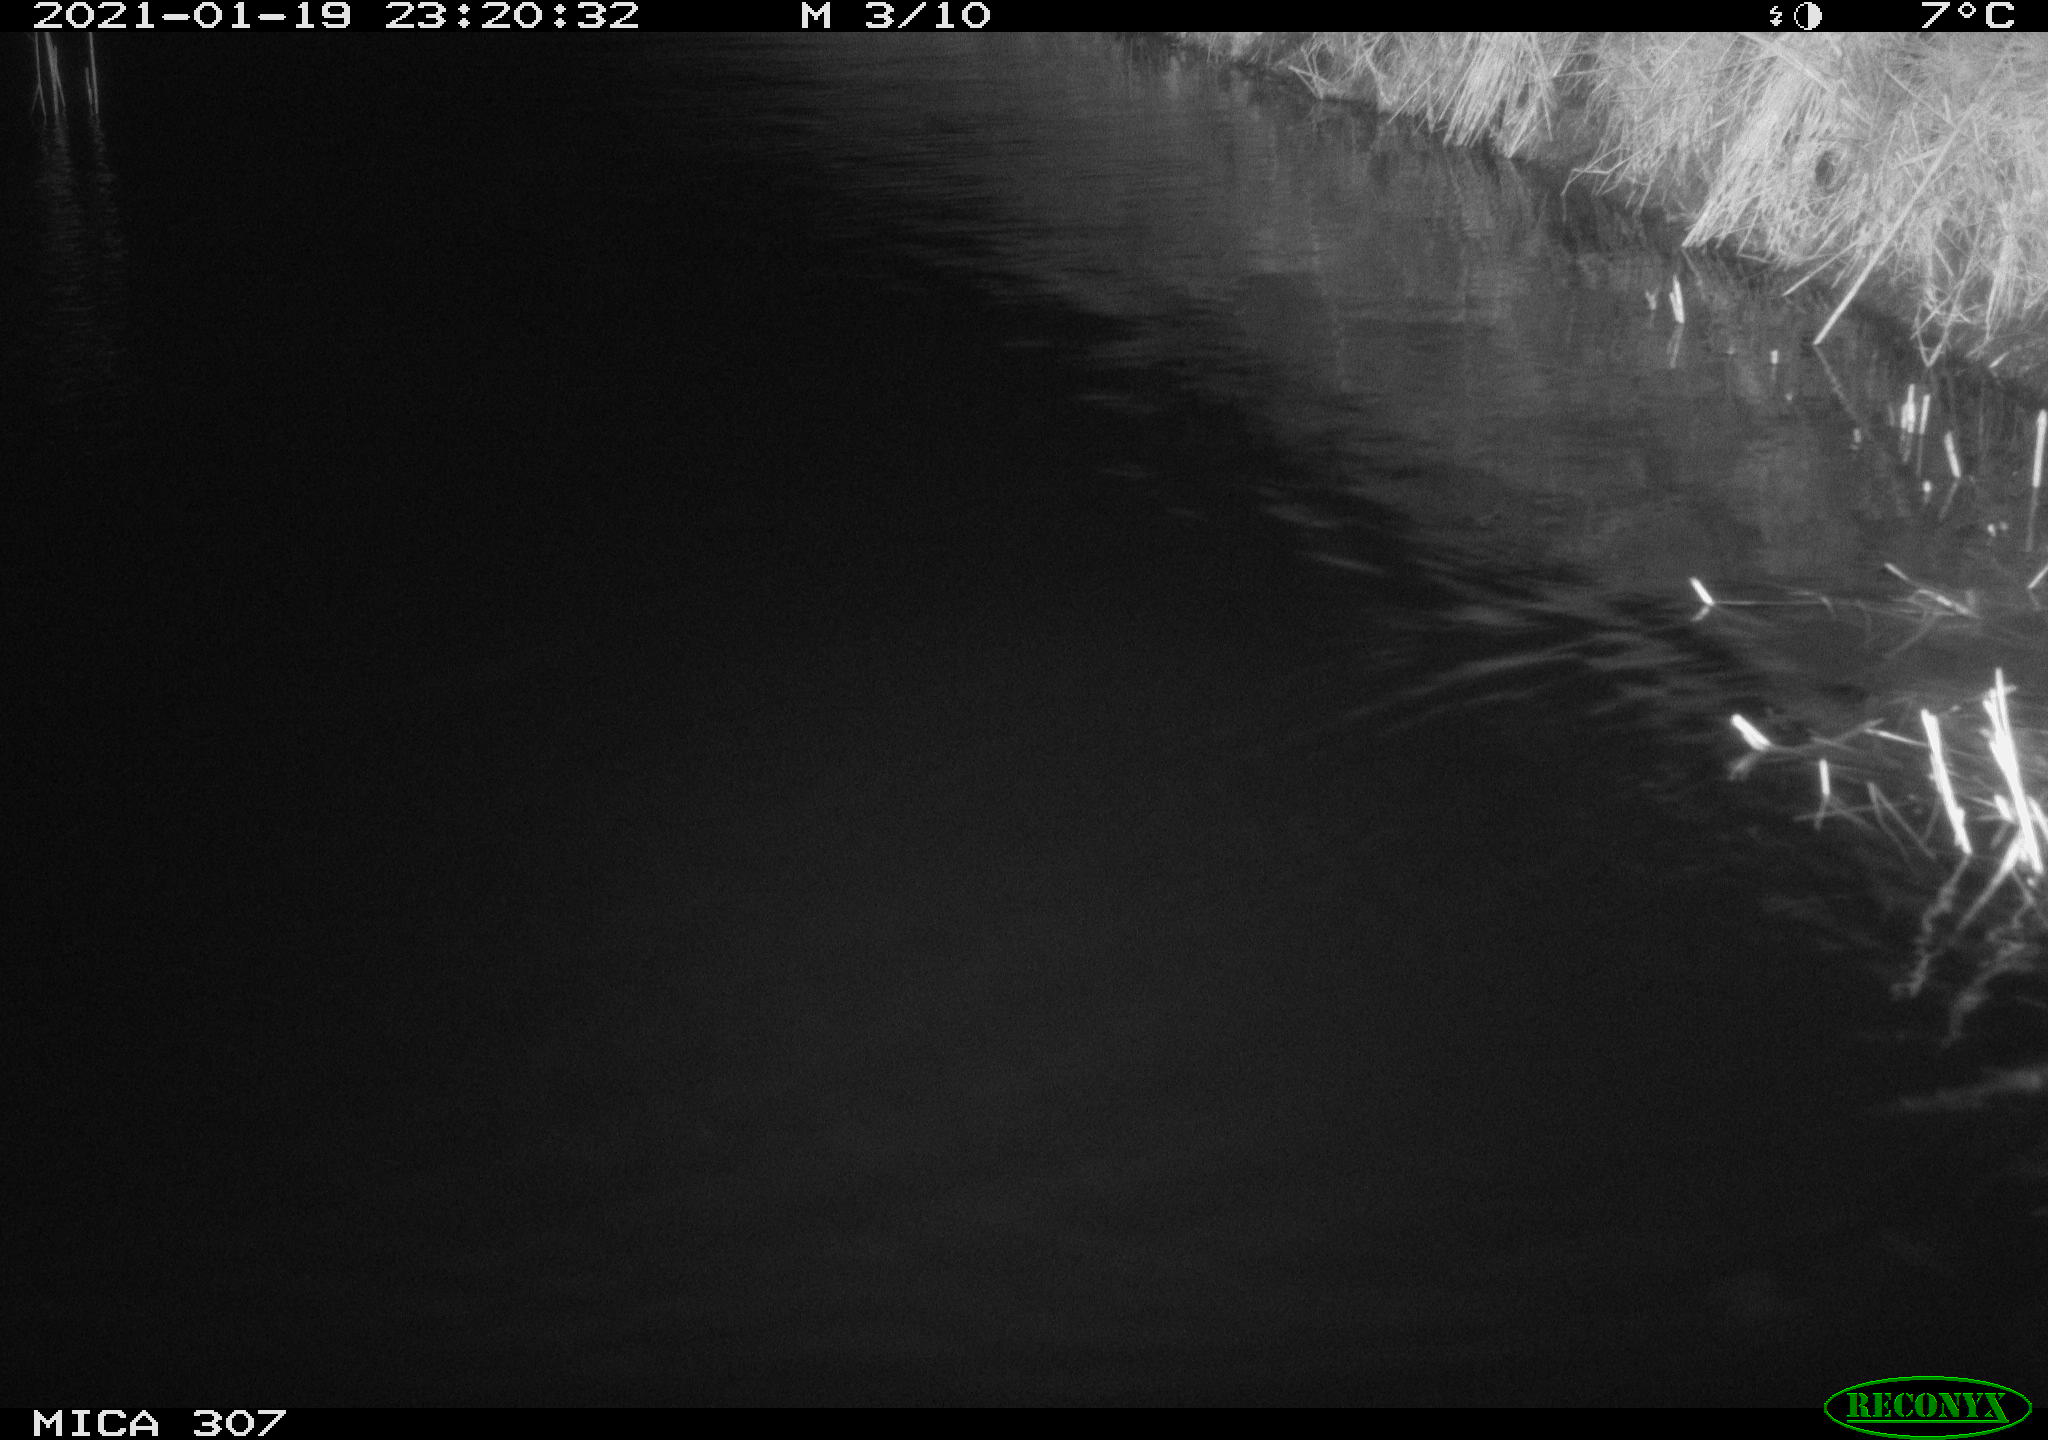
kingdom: Animalia
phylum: Chordata
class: Mammalia
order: Rodentia
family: Muridae
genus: Rattus
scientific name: Rattus norvegicus
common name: Brown rat
